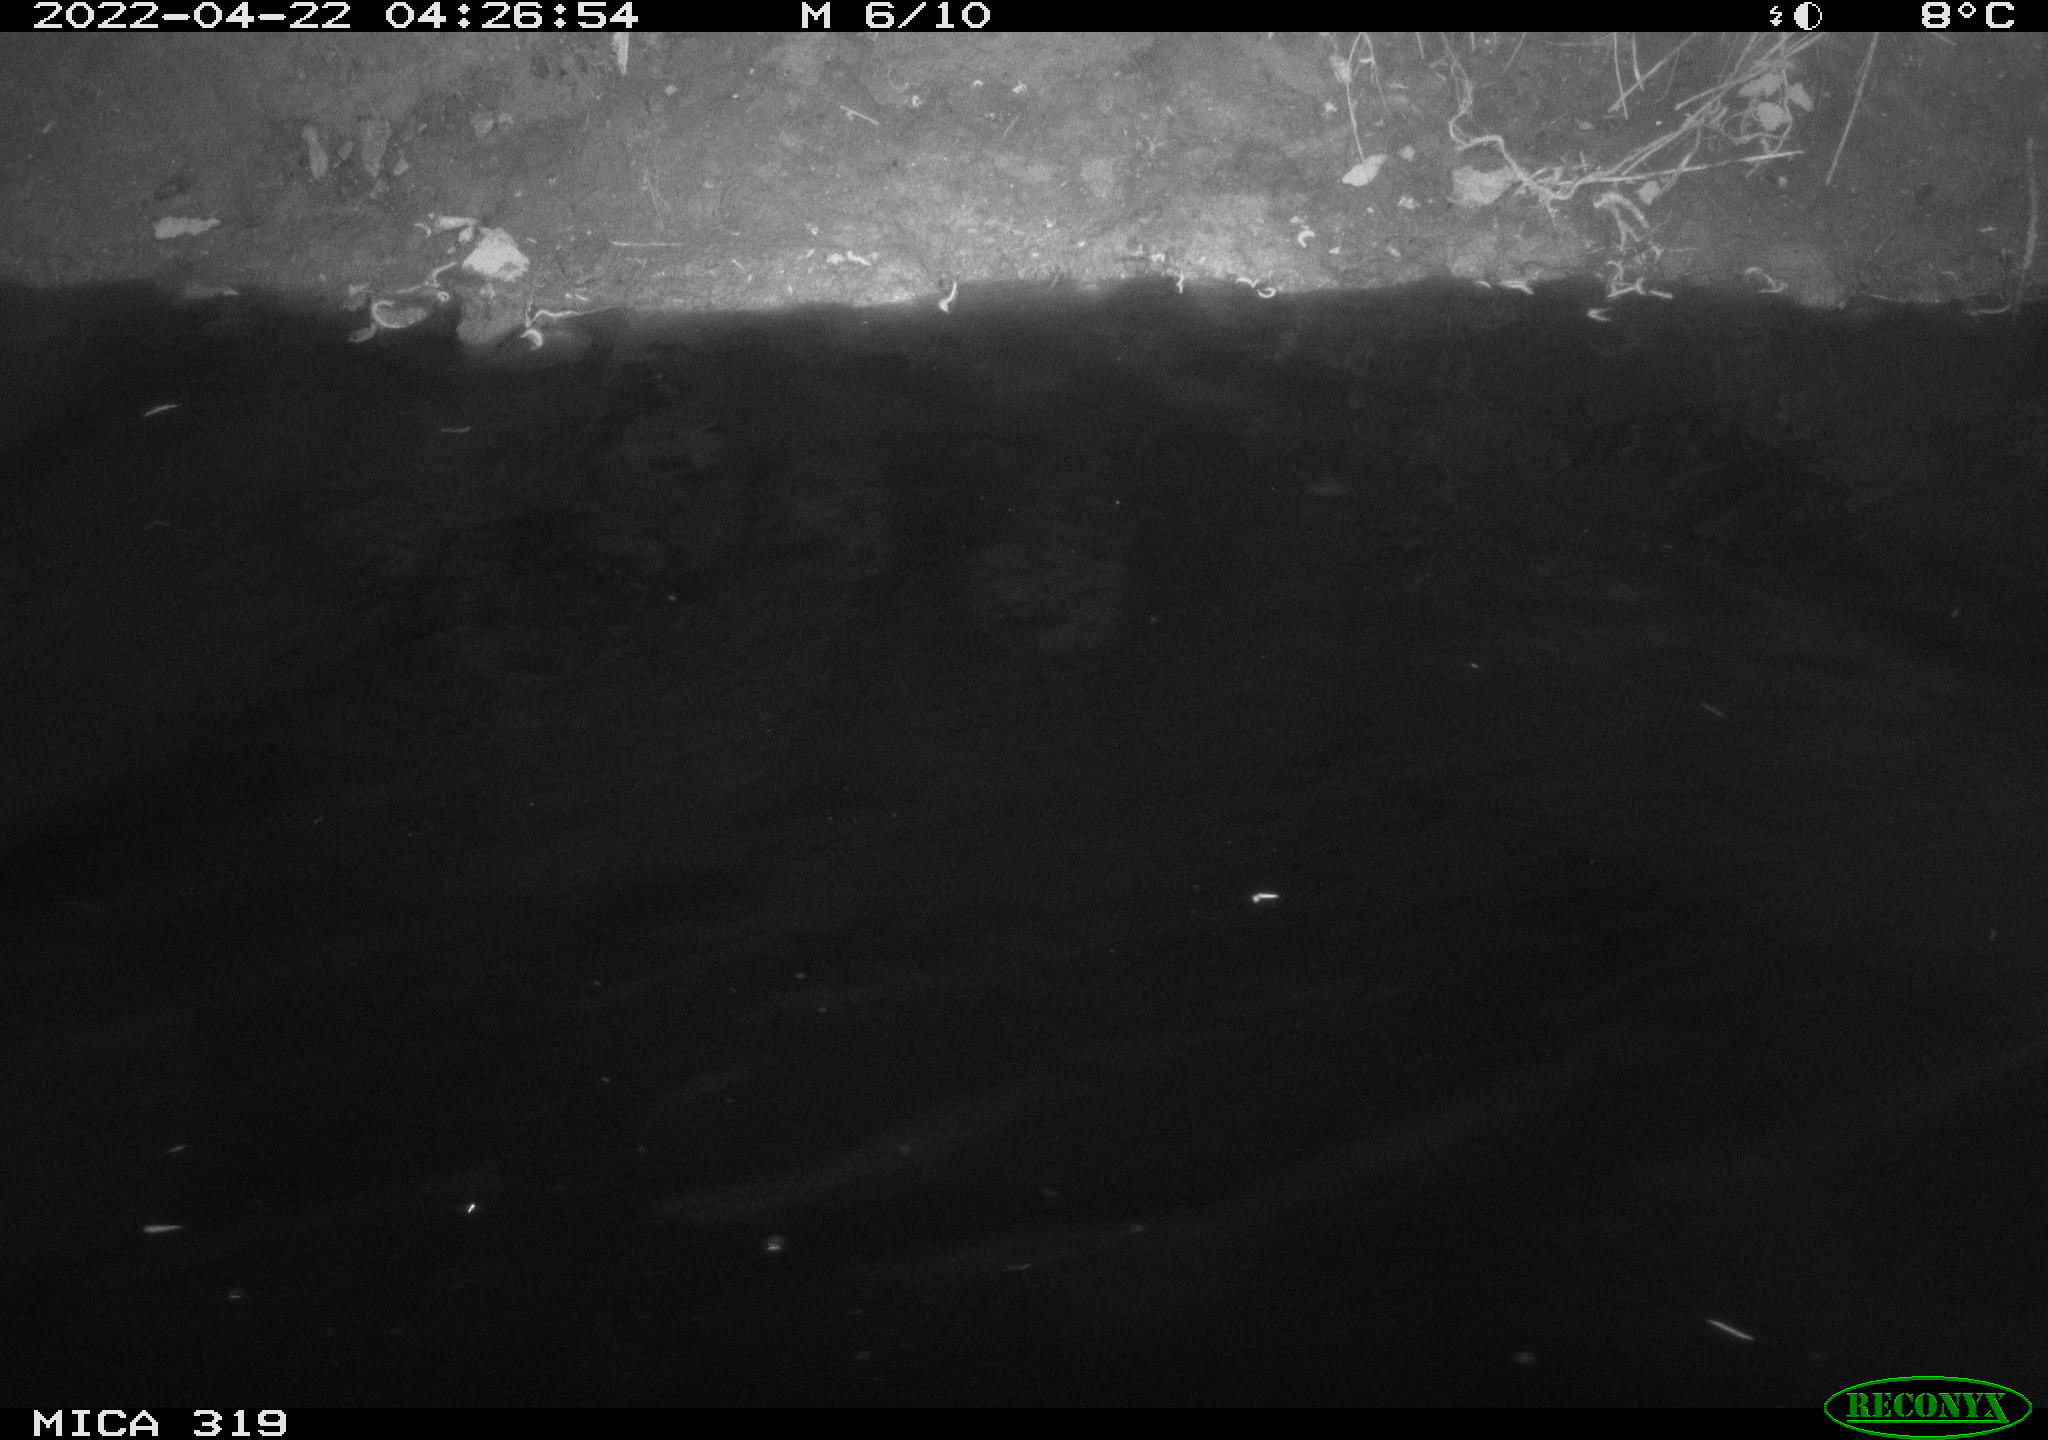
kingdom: Animalia
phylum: Chordata
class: Aves
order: Anseriformes
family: Anatidae
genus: Anas
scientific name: Anas platyrhynchos
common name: Mallard
